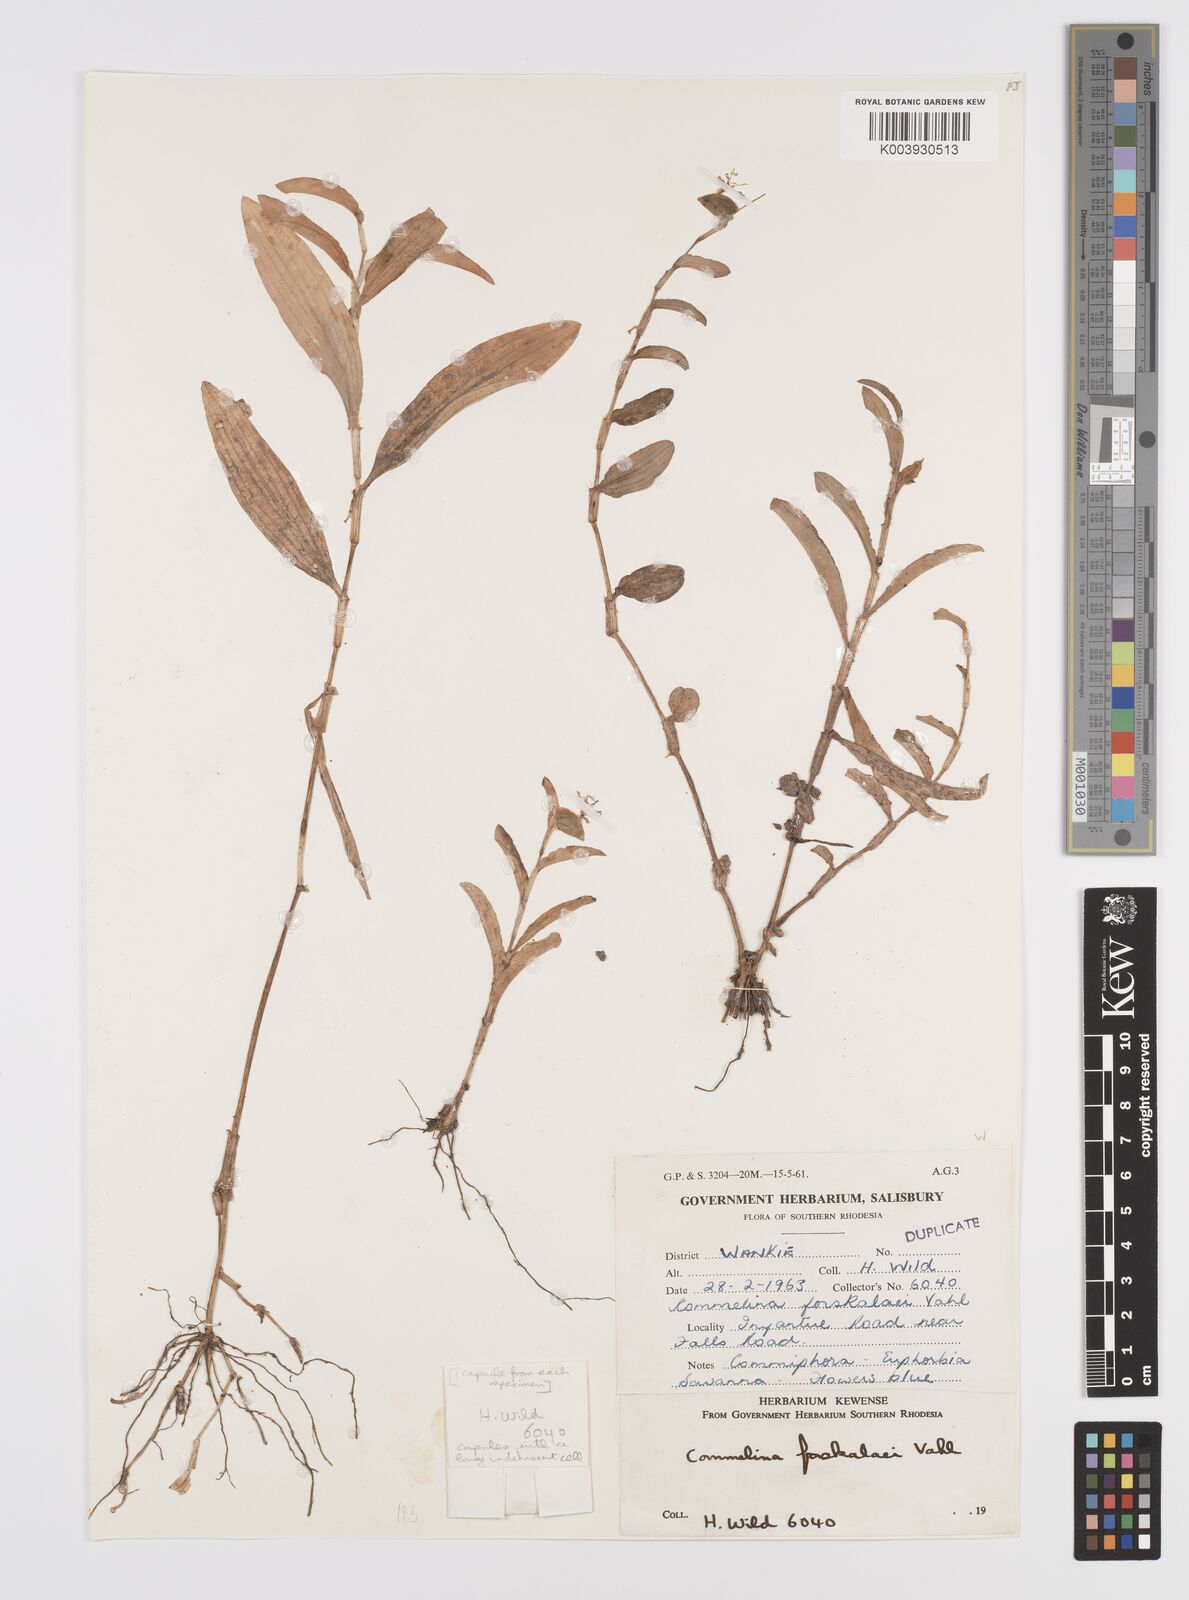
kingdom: Plantae
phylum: Tracheophyta
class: Liliopsida
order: Commelinales
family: Commelinaceae
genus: Commelina
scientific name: Commelina forskaolii
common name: Rat's ear
